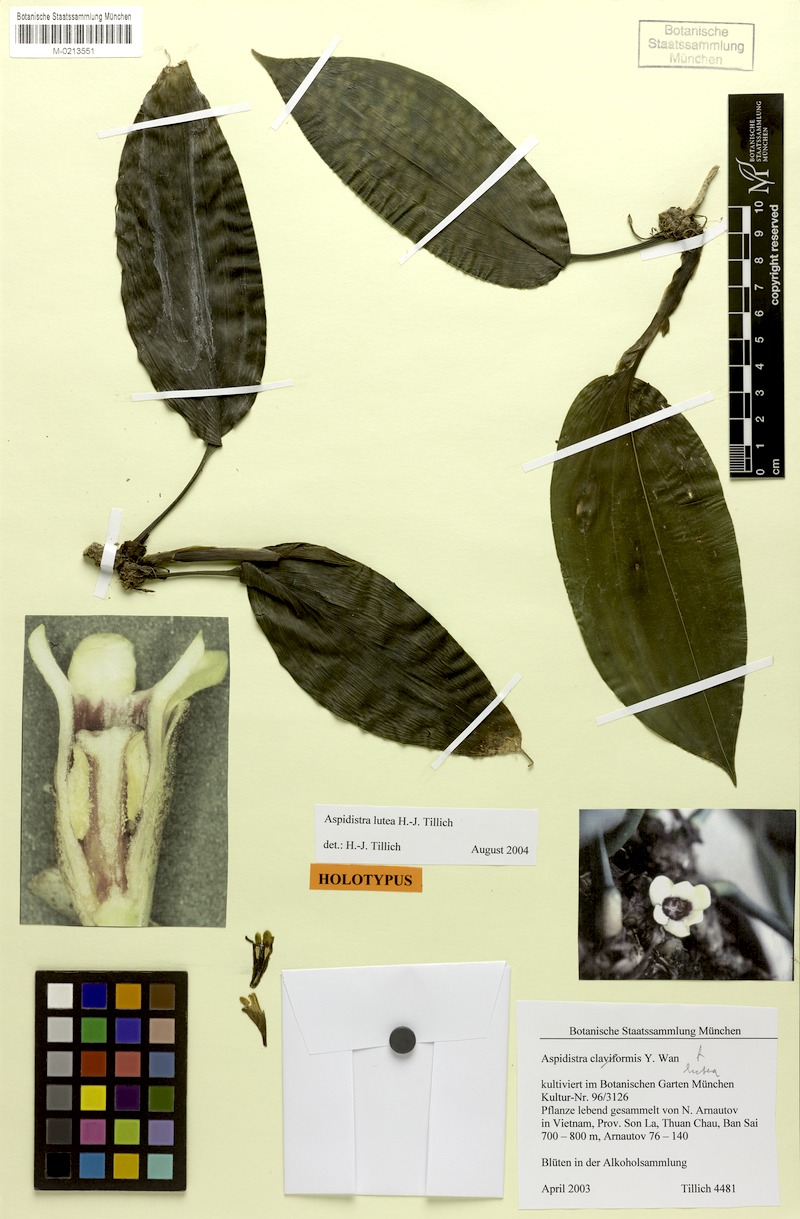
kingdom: Plantae
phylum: Tracheophyta
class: Liliopsida
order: Asparagales
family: Asparagaceae
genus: Aspidistra
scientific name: Aspidistra lutea
